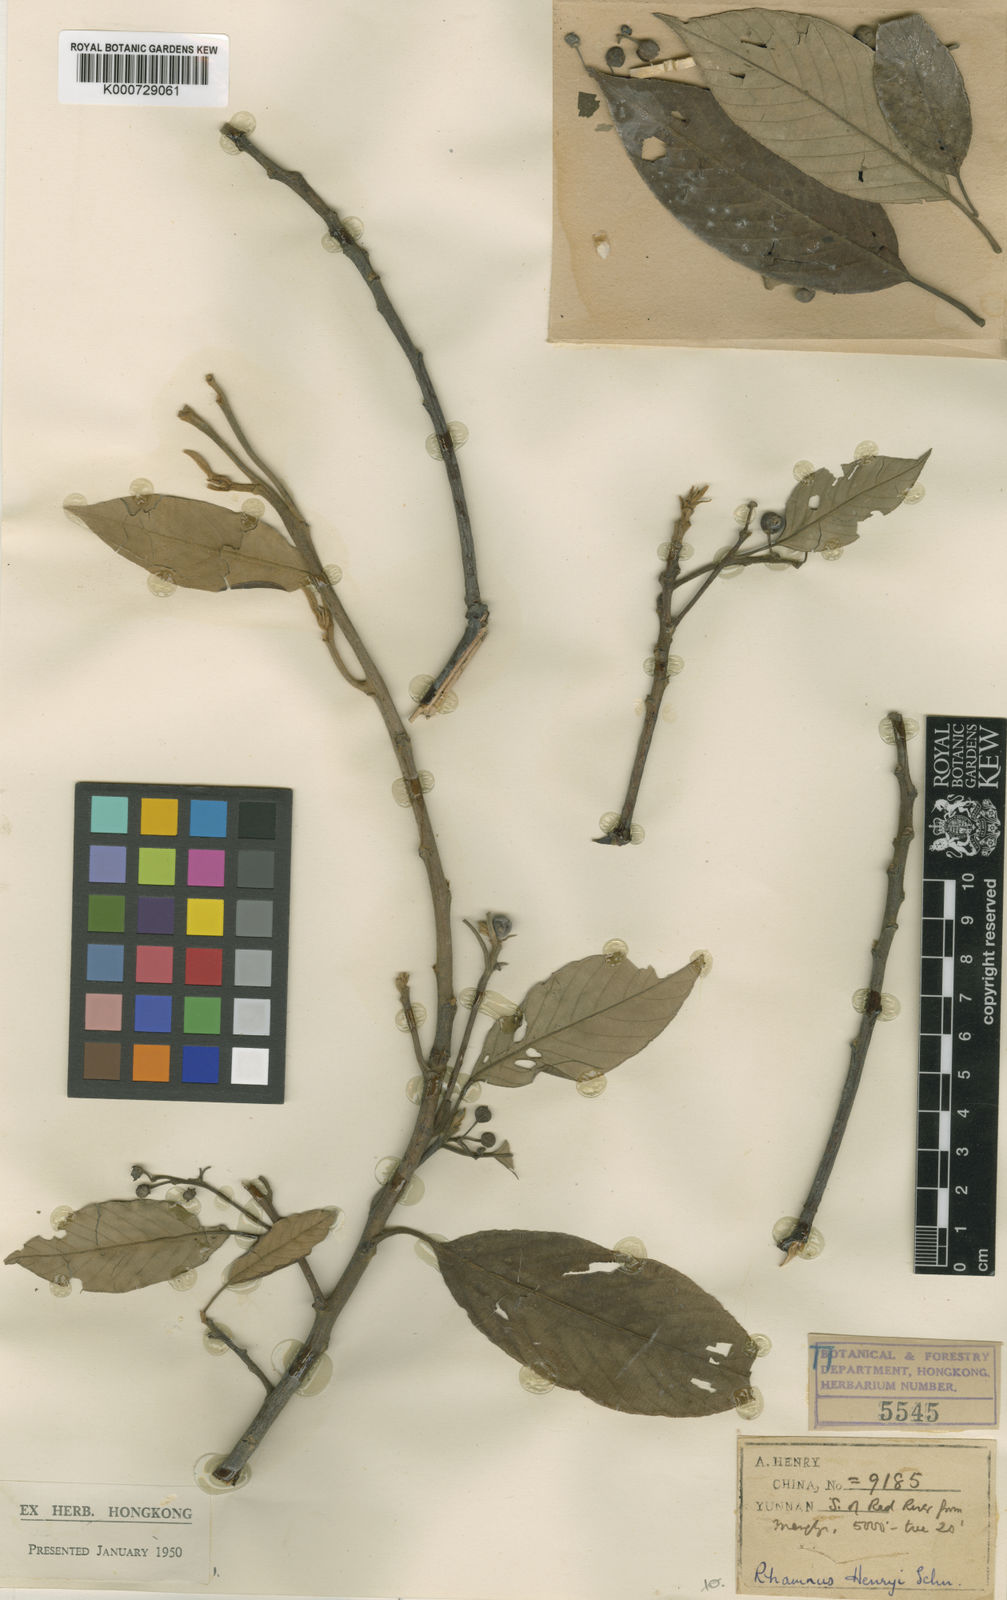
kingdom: Plantae
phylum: Tracheophyta
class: Magnoliopsida
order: Rosales
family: Rhamnaceae
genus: Frangula
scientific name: Frangula henryi
